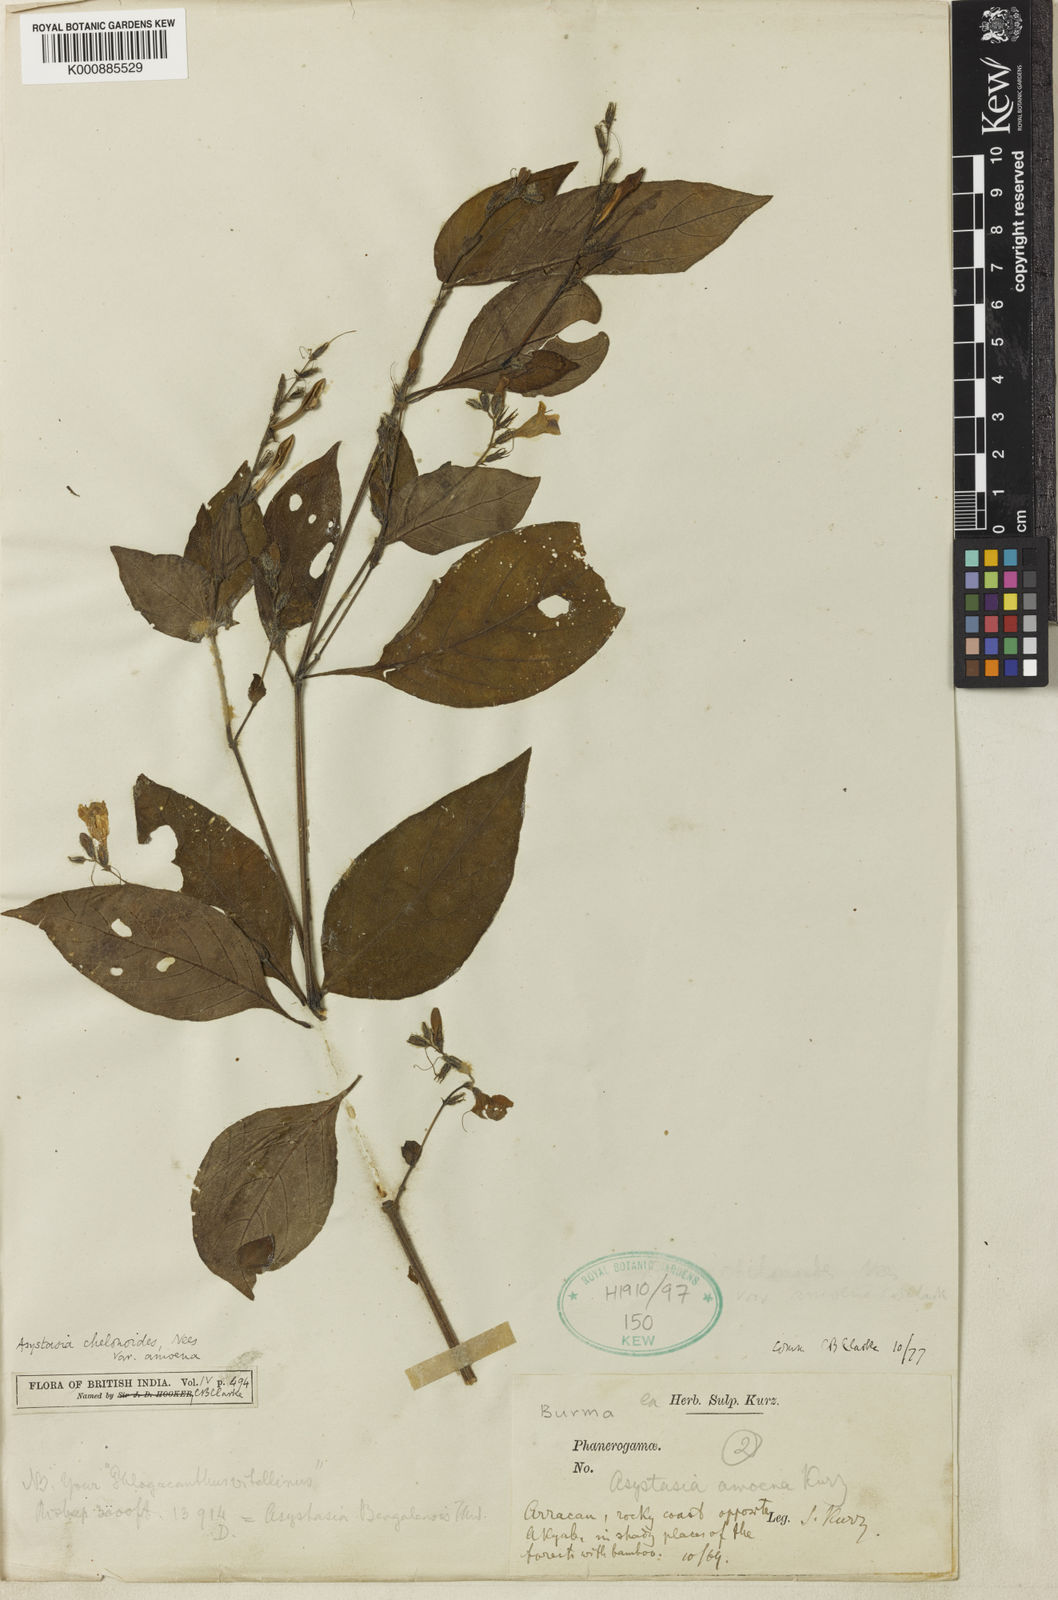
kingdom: Plantae
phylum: Tracheophyta
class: Magnoliopsida
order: Lamiales
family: Acanthaceae
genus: Asystasia
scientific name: Asystasia nemorum
